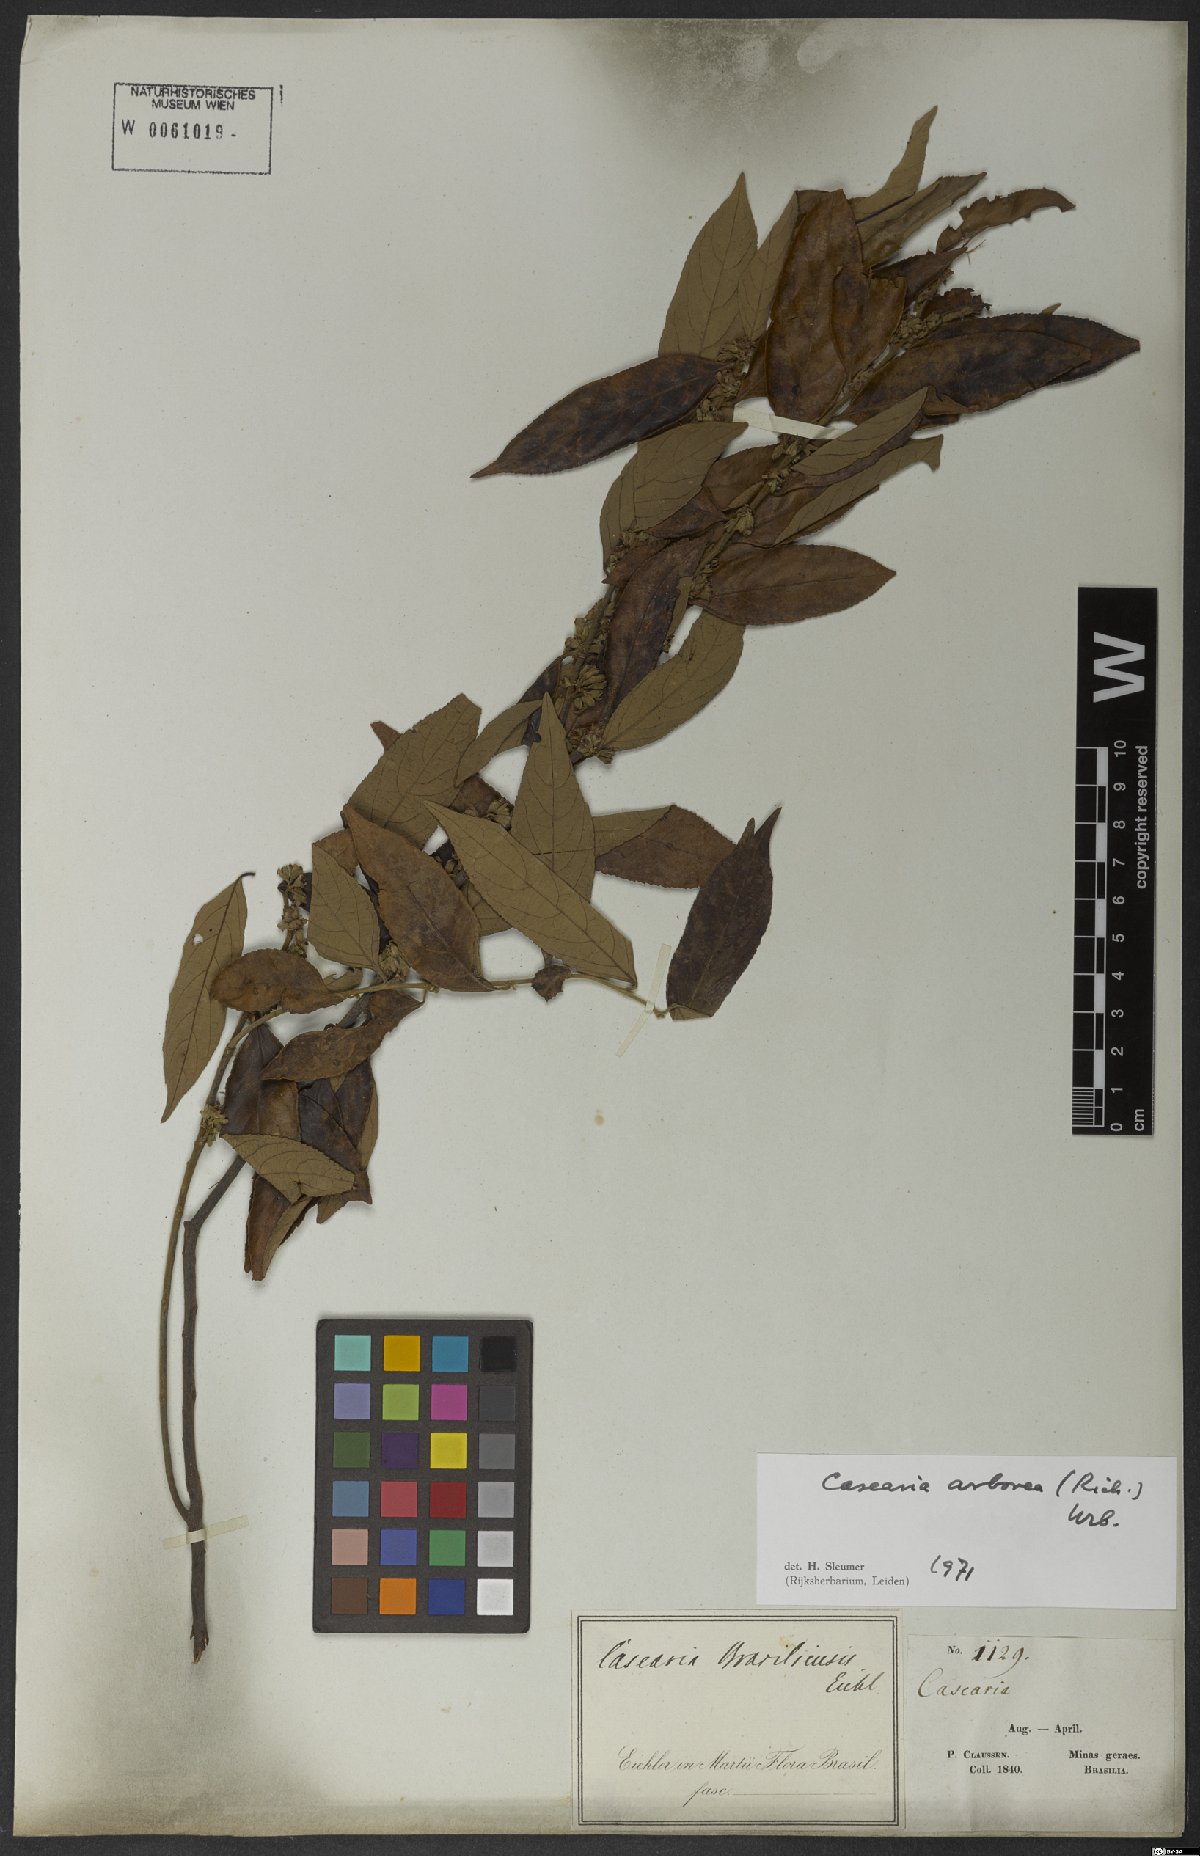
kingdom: Plantae
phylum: Tracheophyta
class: Magnoliopsida
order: Malpighiales
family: Salicaceae
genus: Casearia
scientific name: Casearia arborea
